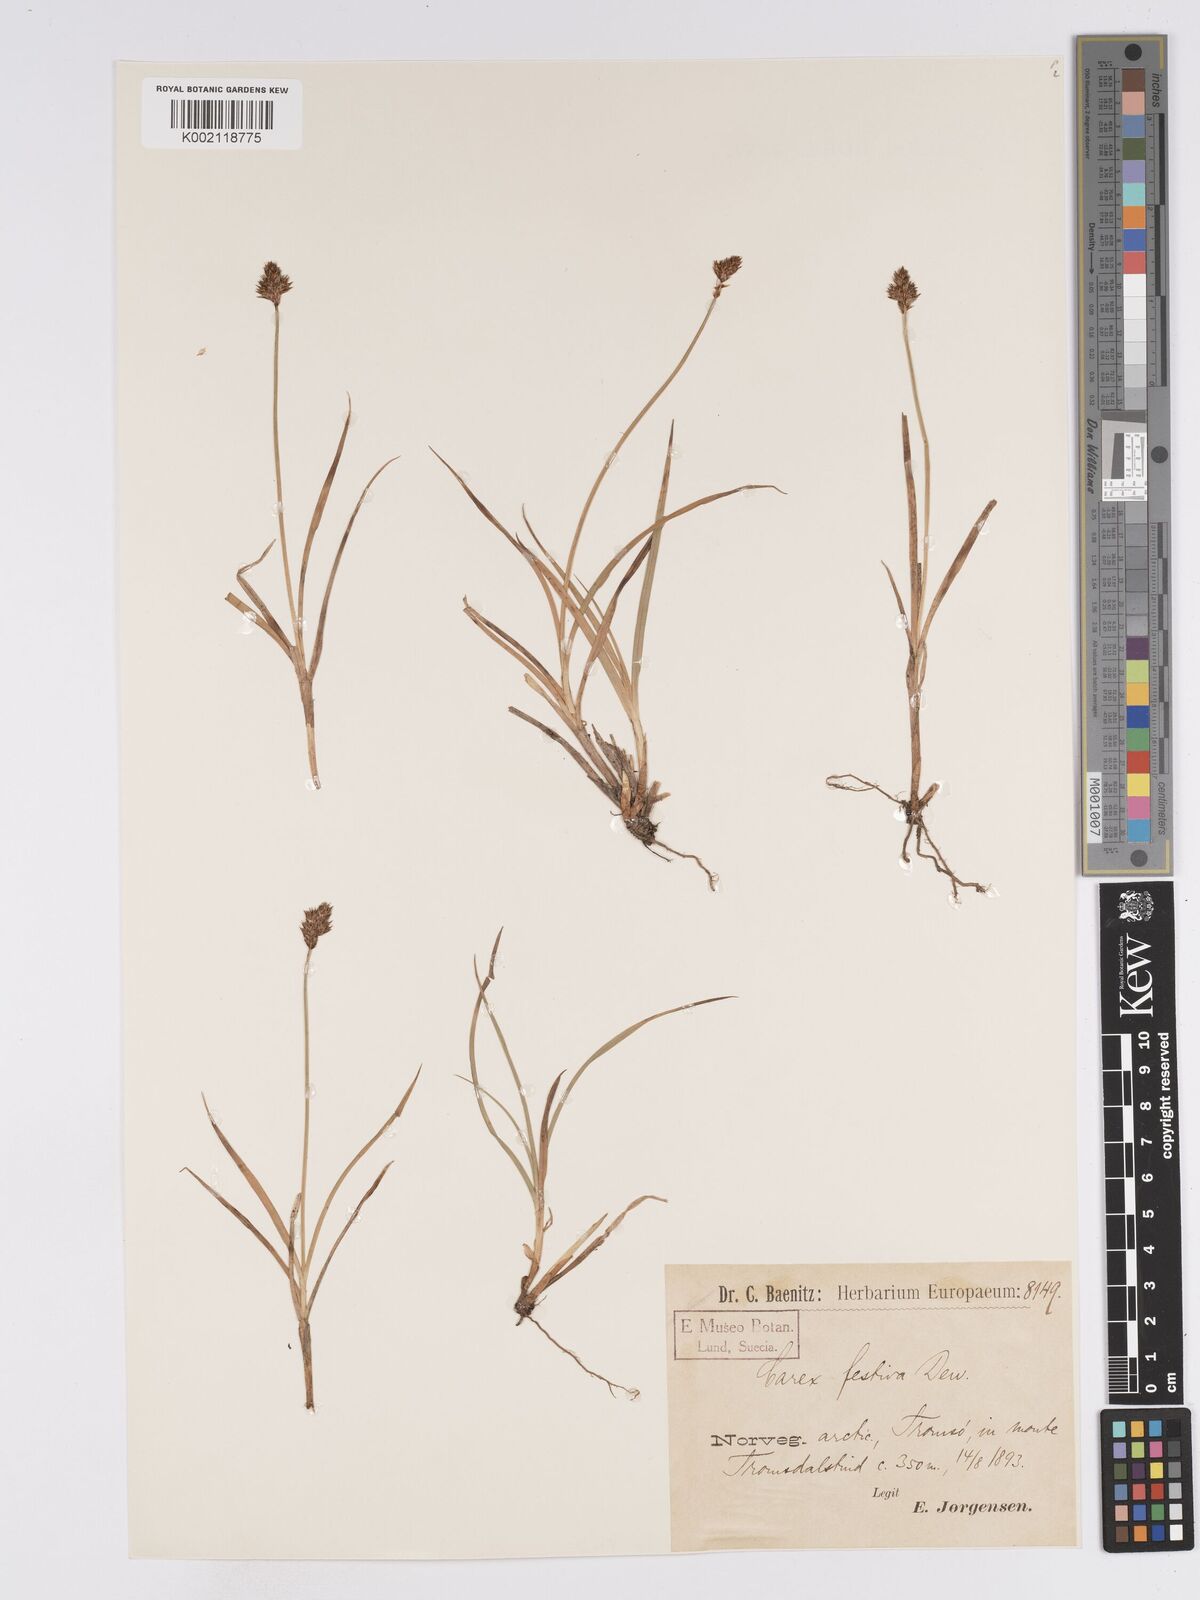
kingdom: Plantae
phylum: Tracheophyta
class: Liliopsida
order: Poales
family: Cyperaceae
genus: Carex
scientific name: Carex macloviana
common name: Falkland island sedge
